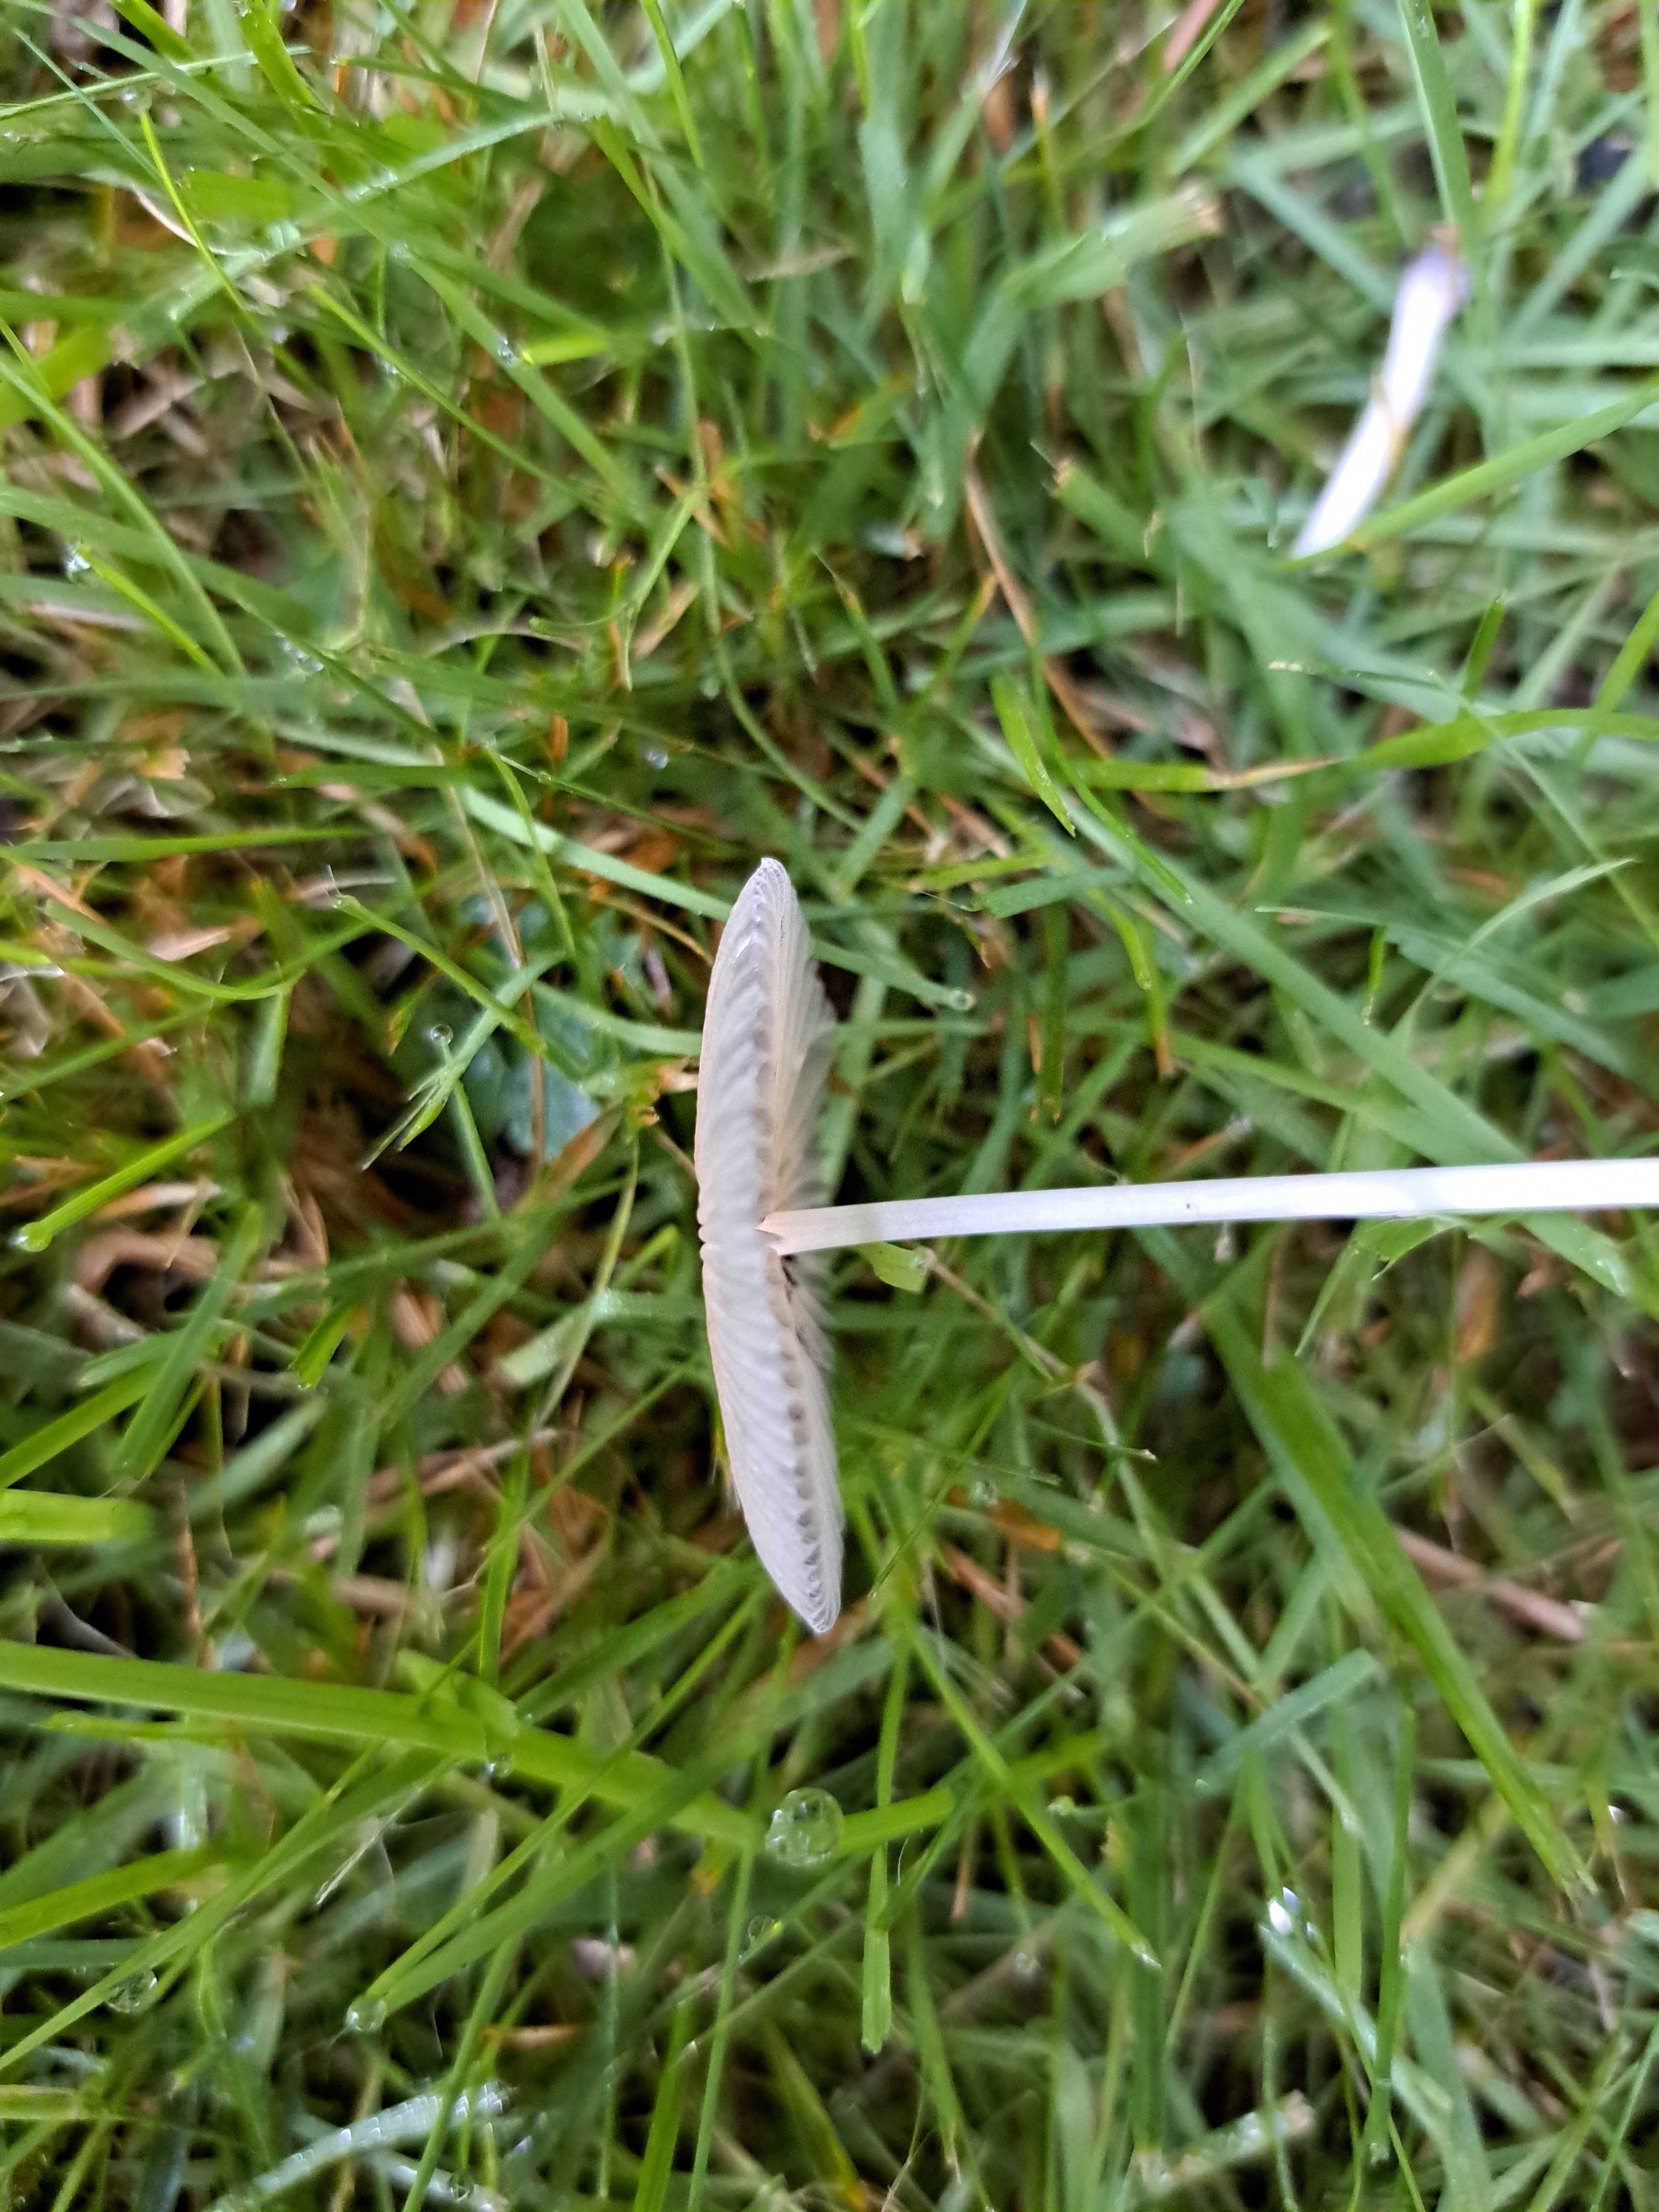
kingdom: Fungi
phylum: Basidiomycota
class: Agaricomycetes
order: Agaricales
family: Psathyrellaceae
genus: Parasola
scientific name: Parasola
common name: hjulhat
